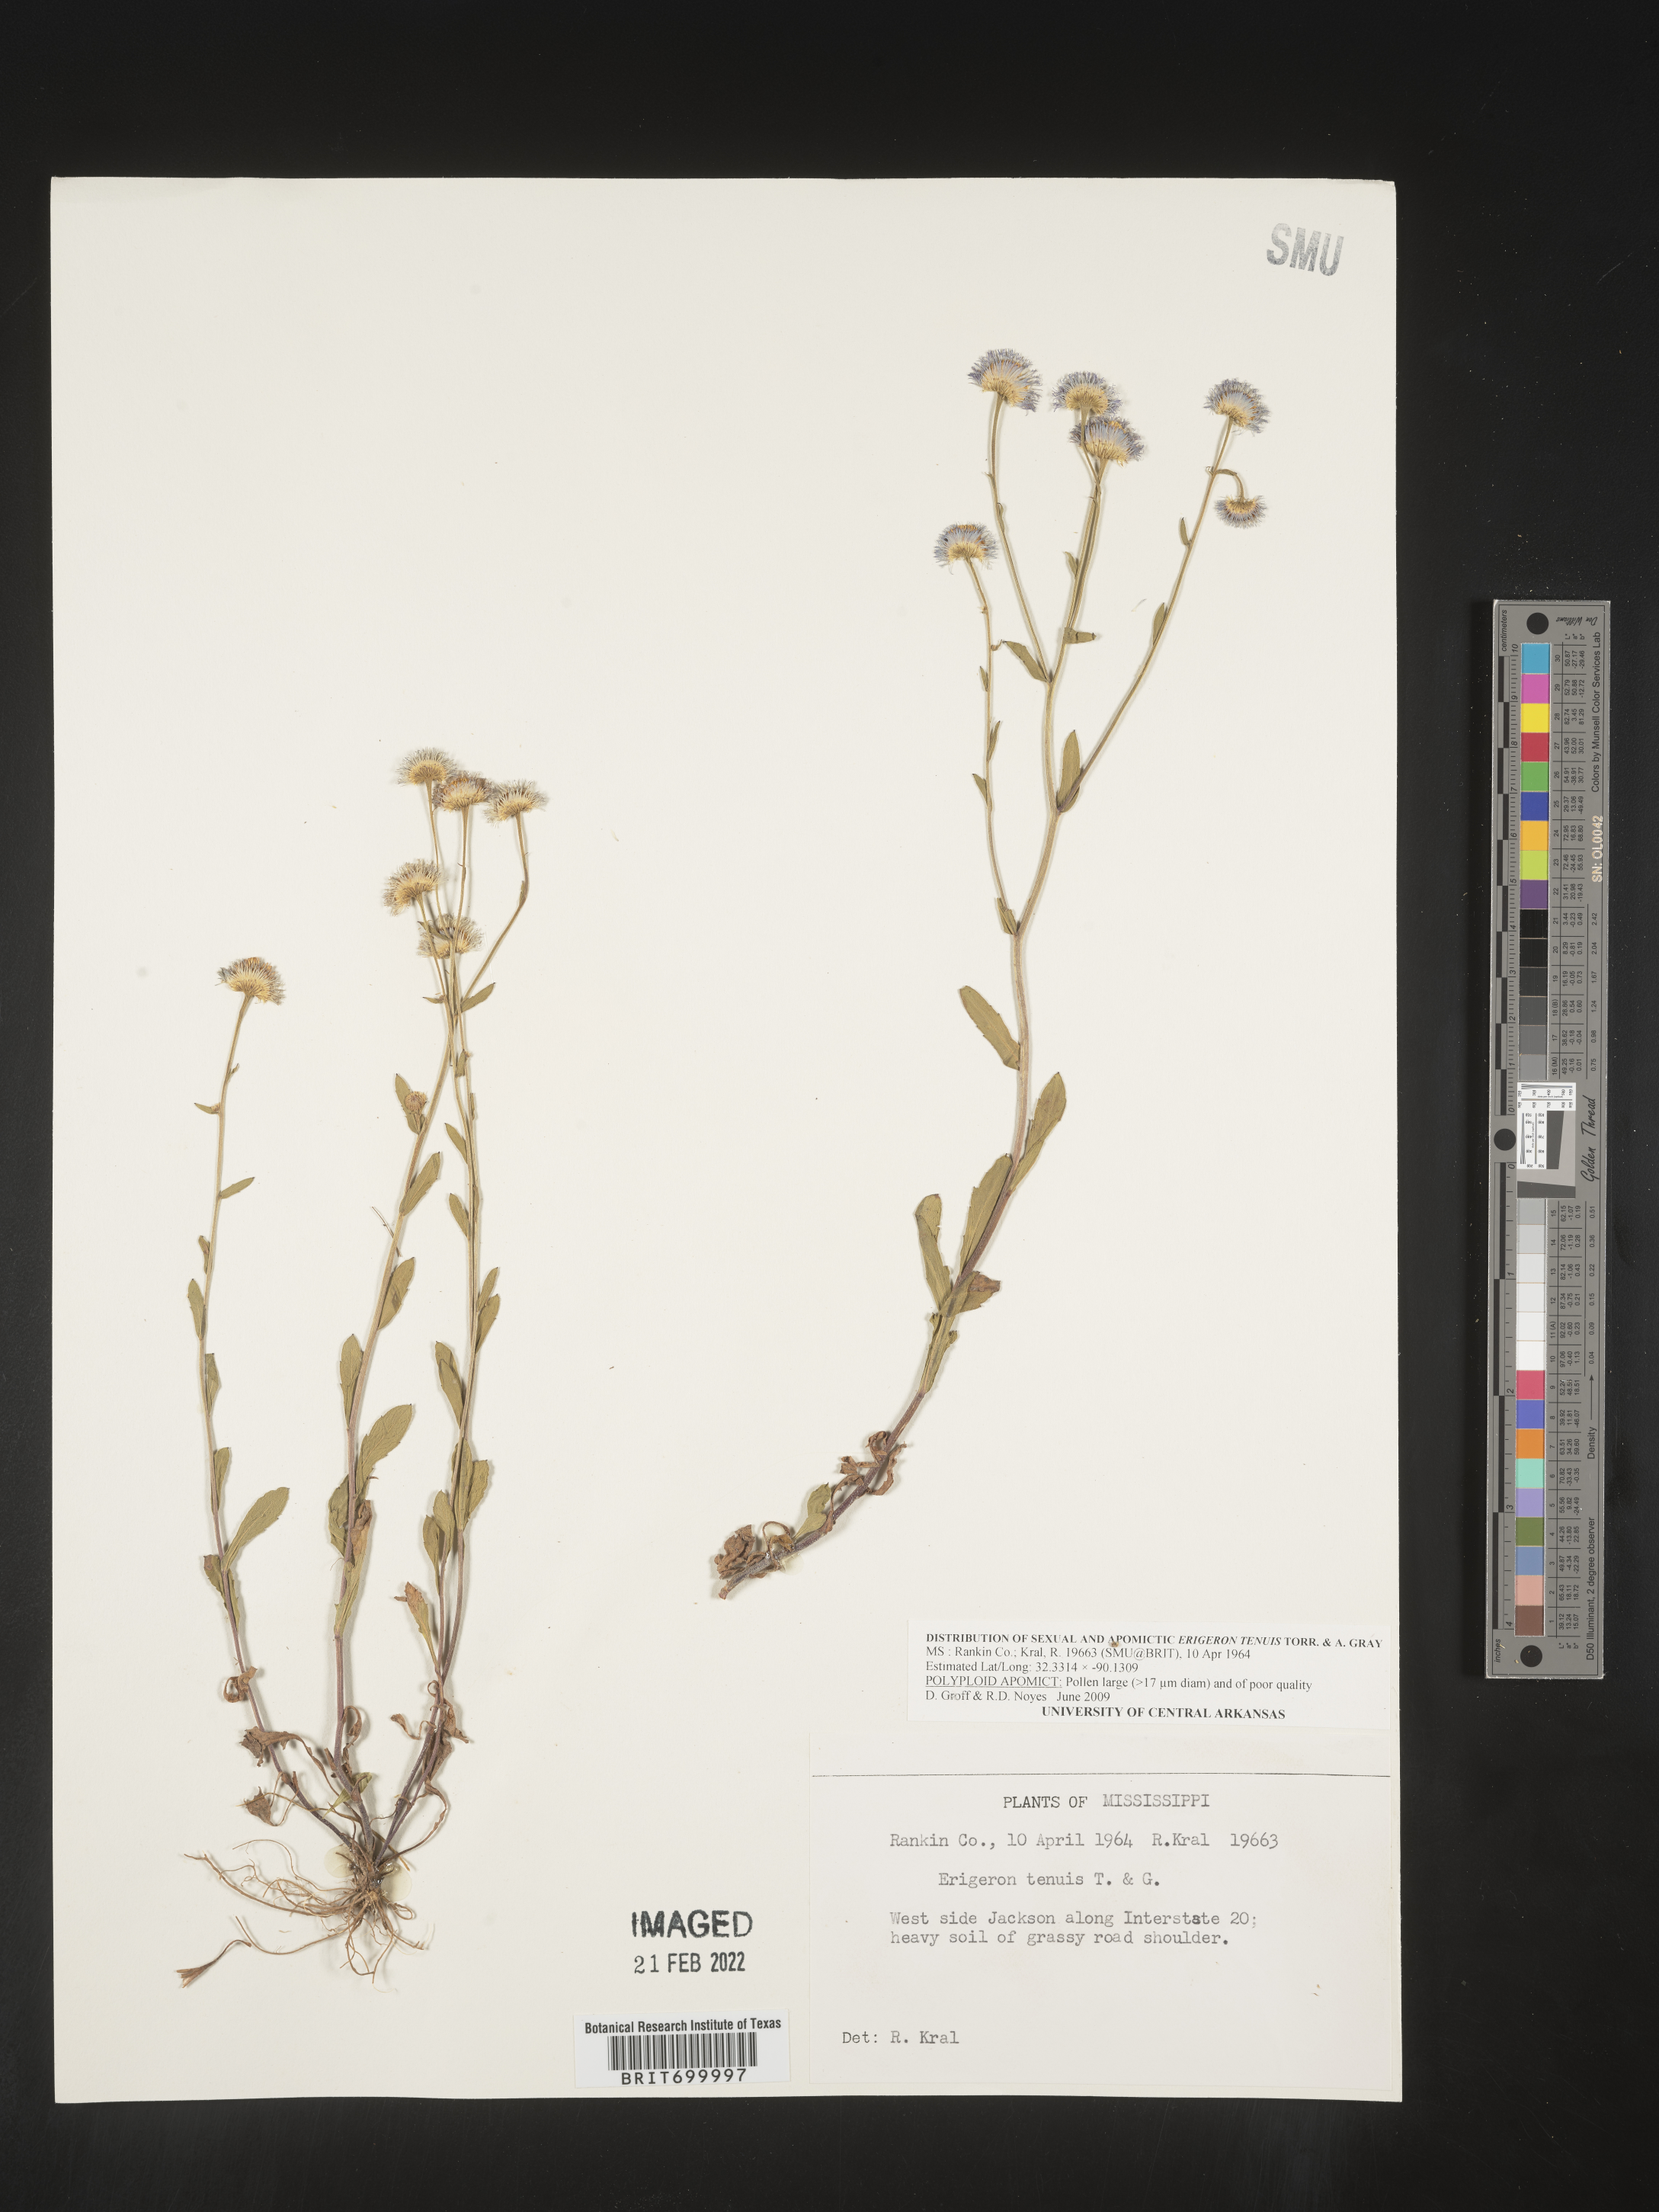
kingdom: Plantae
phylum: Tracheophyta
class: Magnoliopsida
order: Asterales
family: Asteraceae
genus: Erigeron
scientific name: Erigeron tenuis
